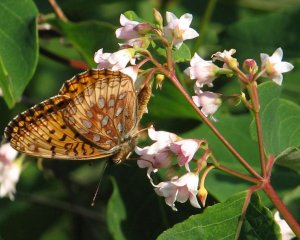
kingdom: Animalia
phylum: Arthropoda
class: Insecta
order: Lepidoptera
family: Nymphalidae
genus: Speyeria
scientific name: Speyeria aphrodite
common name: Aphrodite Fritillary
